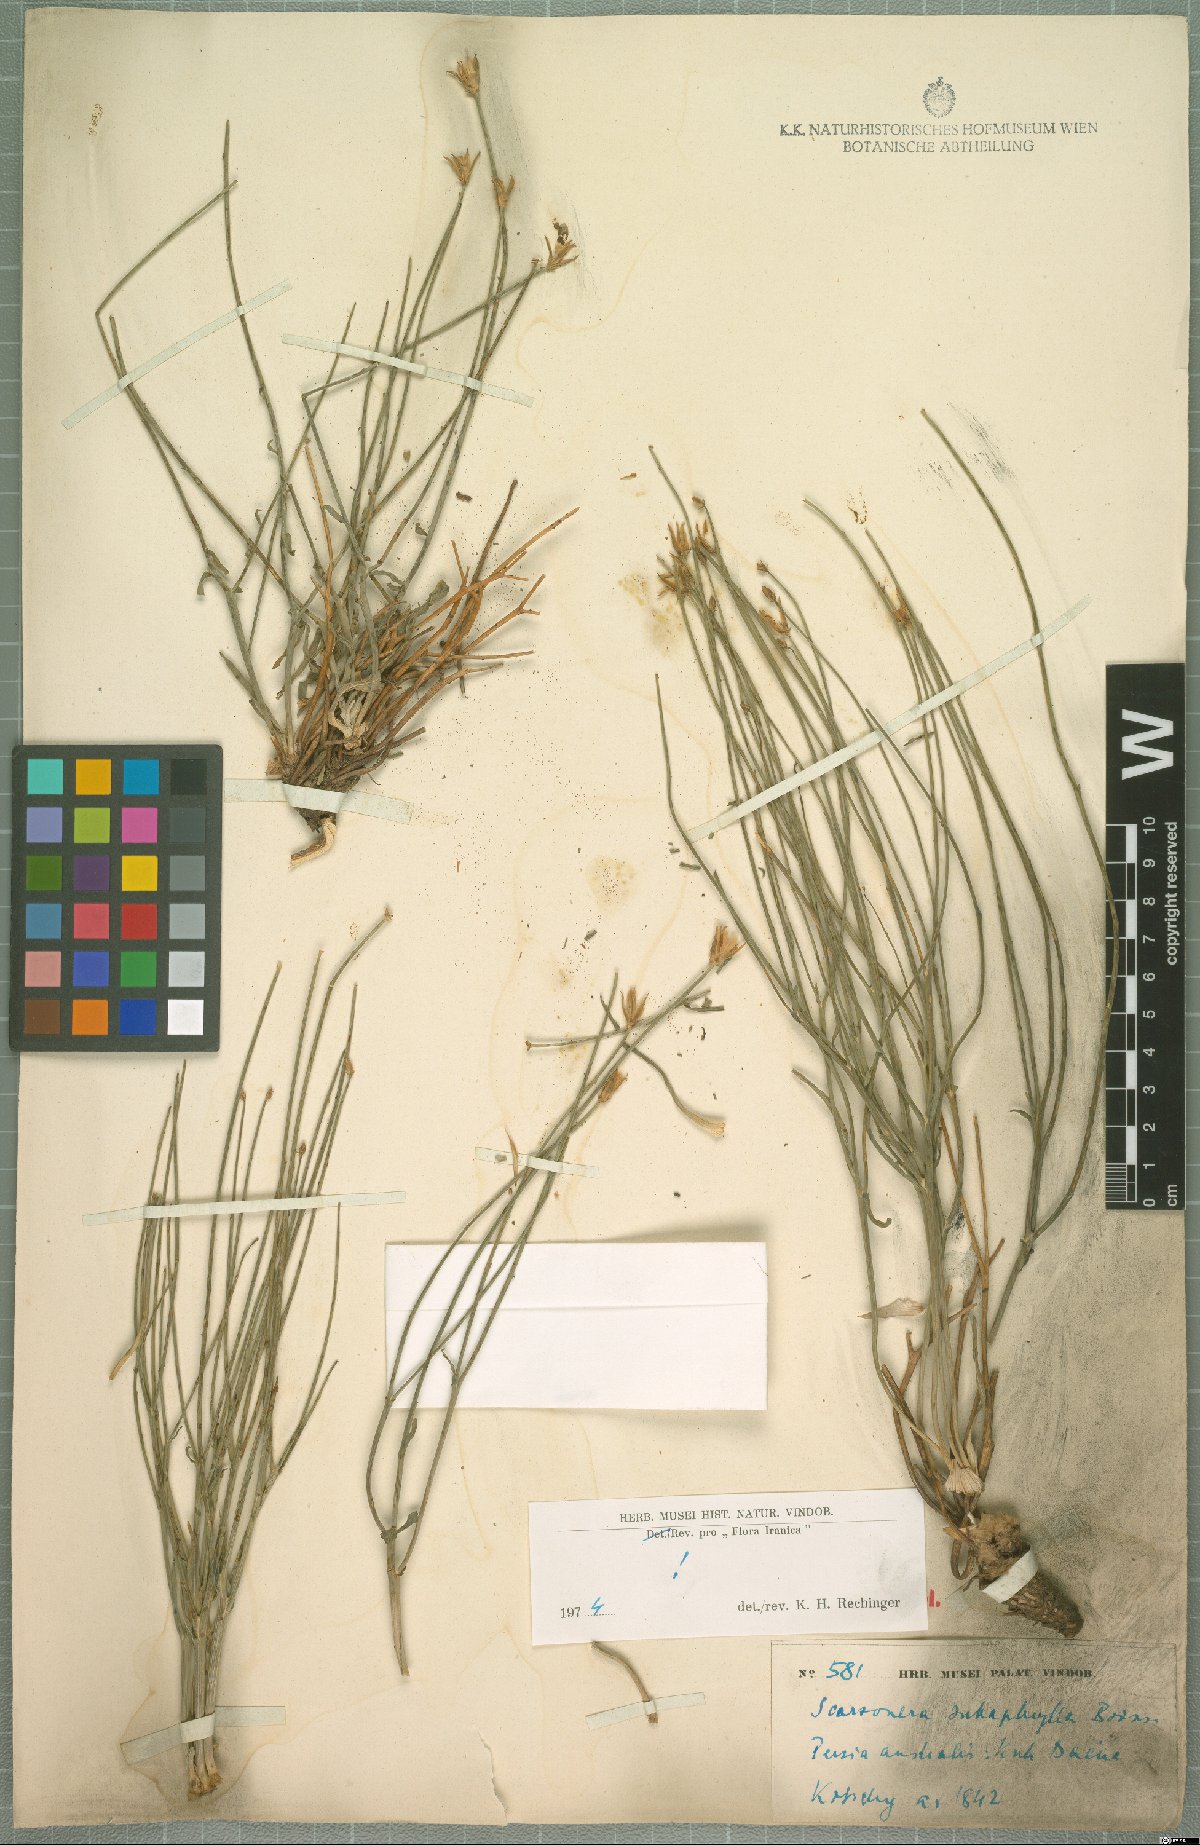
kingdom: Plantae
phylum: Tracheophyta
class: Magnoliopsida
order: Asterales
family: Asteraceae
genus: Scorzonera
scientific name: Scorzonera subaphylla
